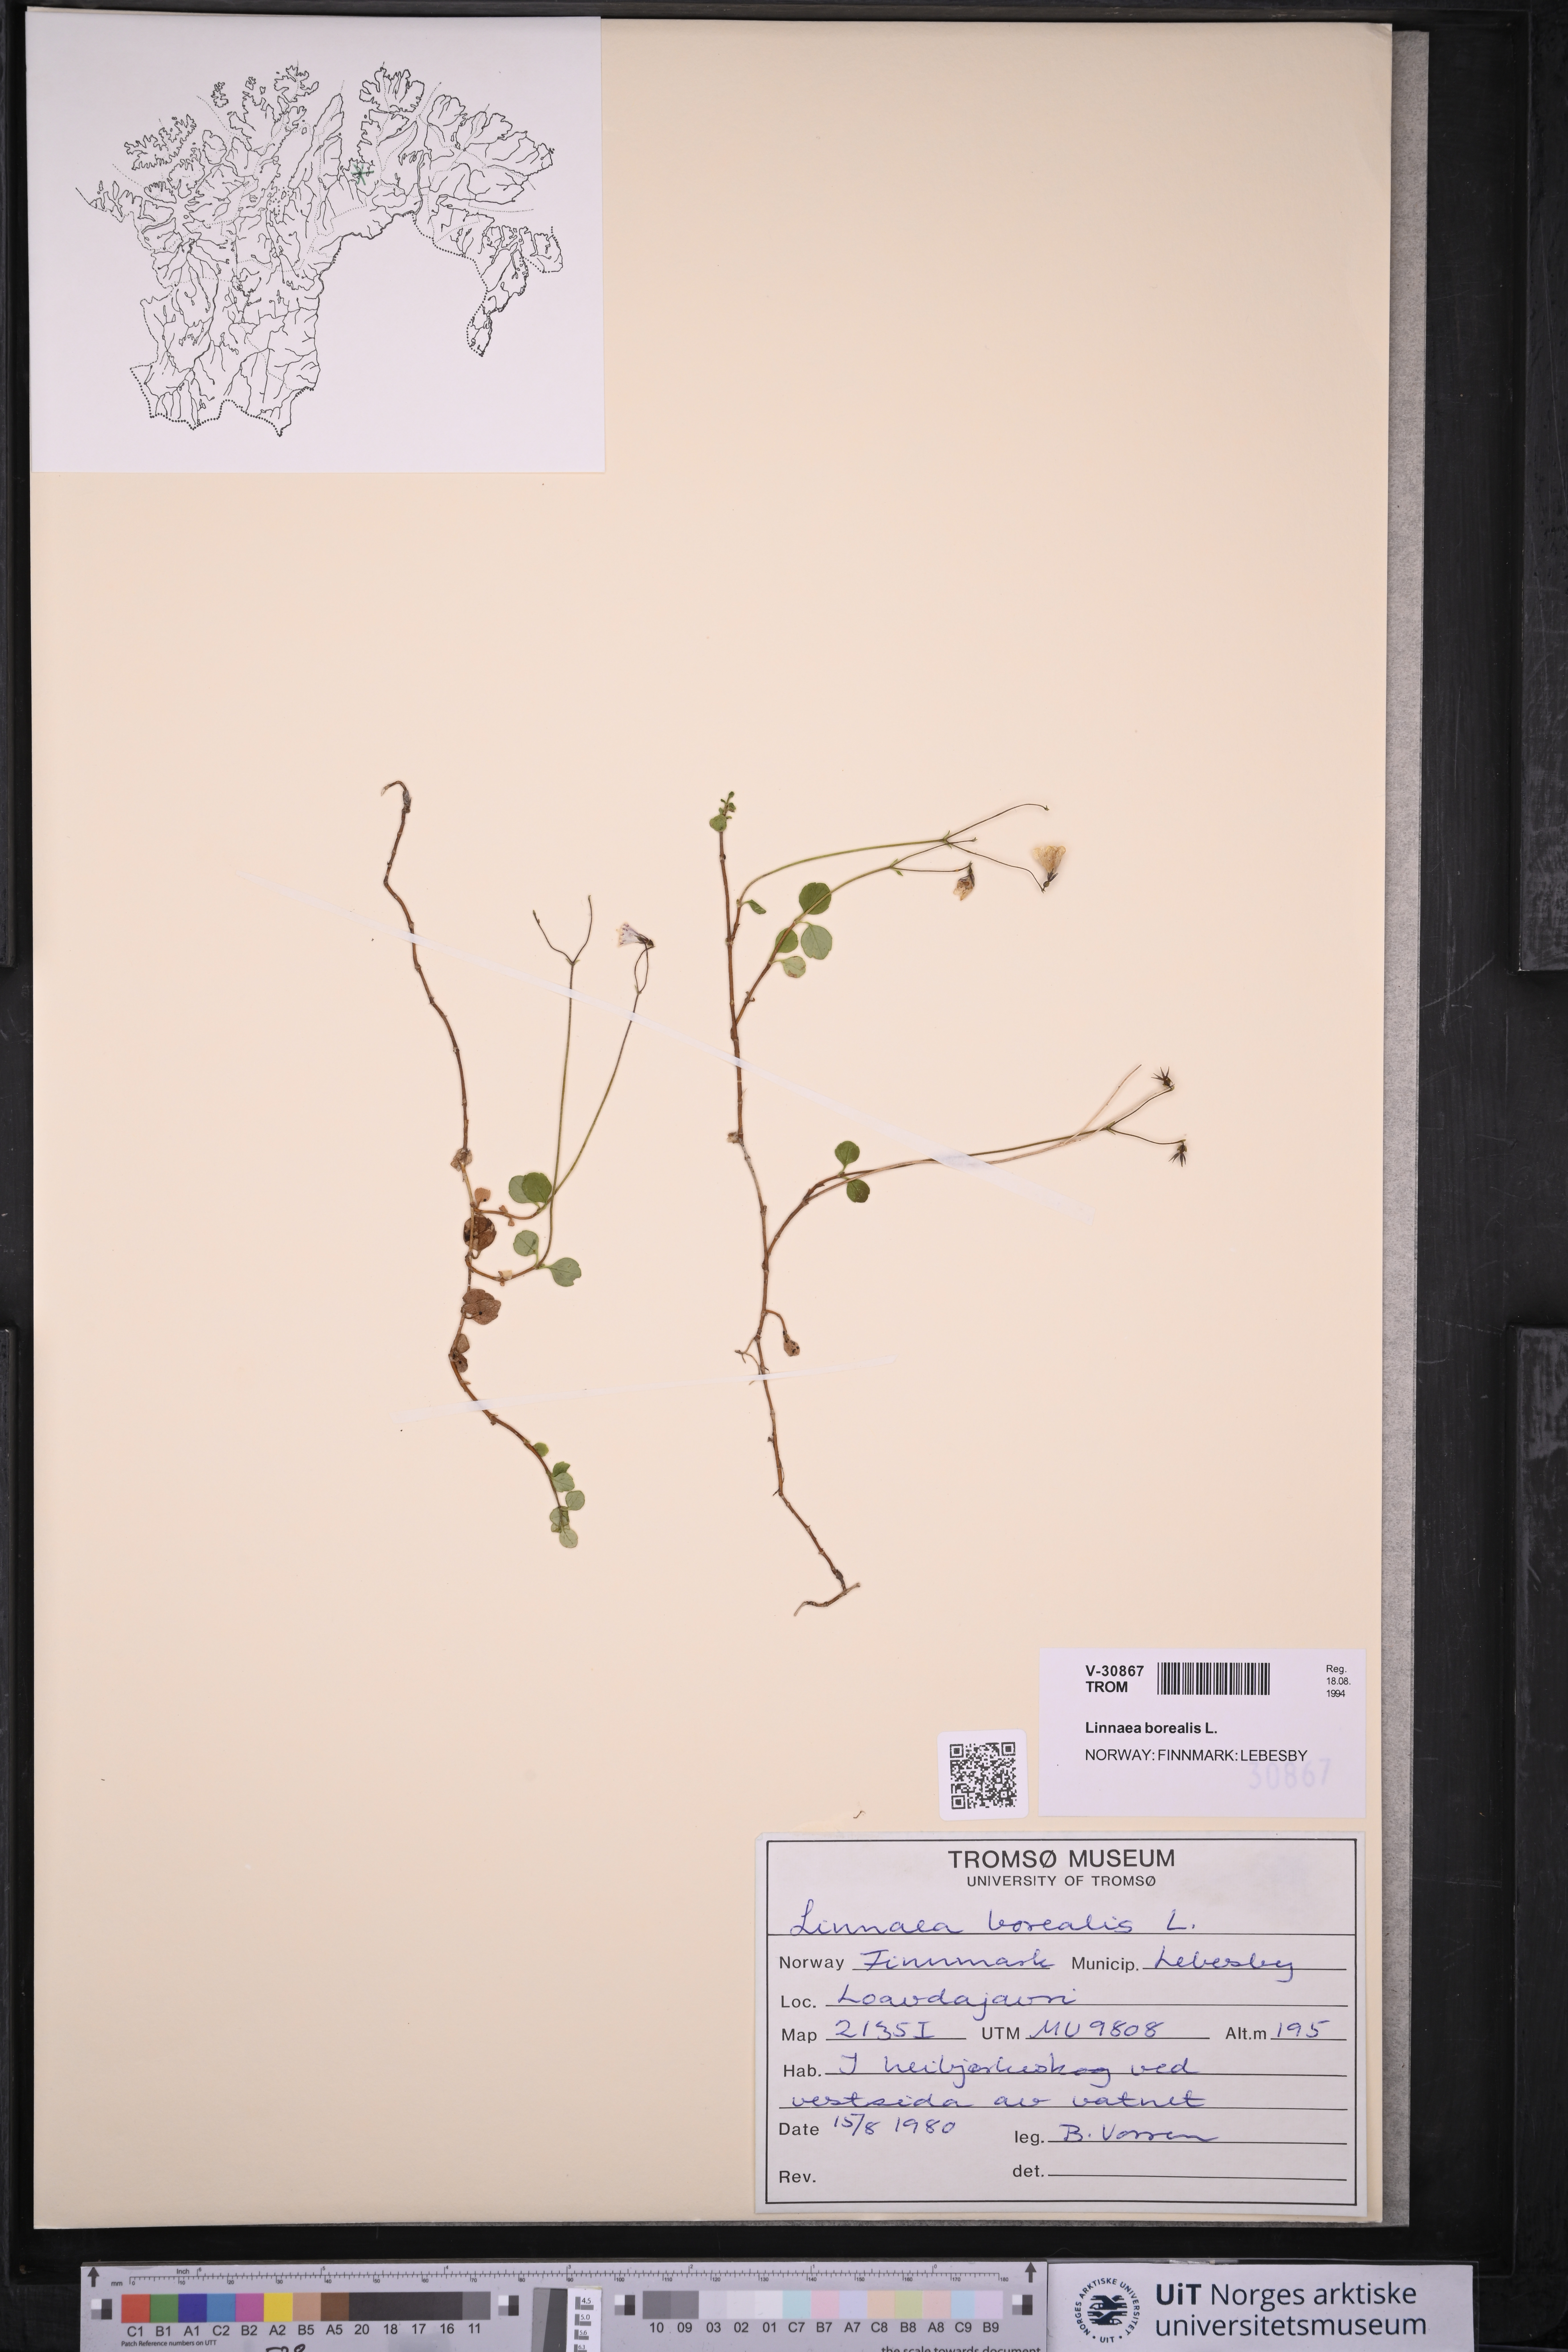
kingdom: Plantae
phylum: Tracheophyta
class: Magnoliopsida
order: Dipsacales
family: Caprifoliaceae
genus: Linnaea
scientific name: Linnaea borealis
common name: Twinflower
